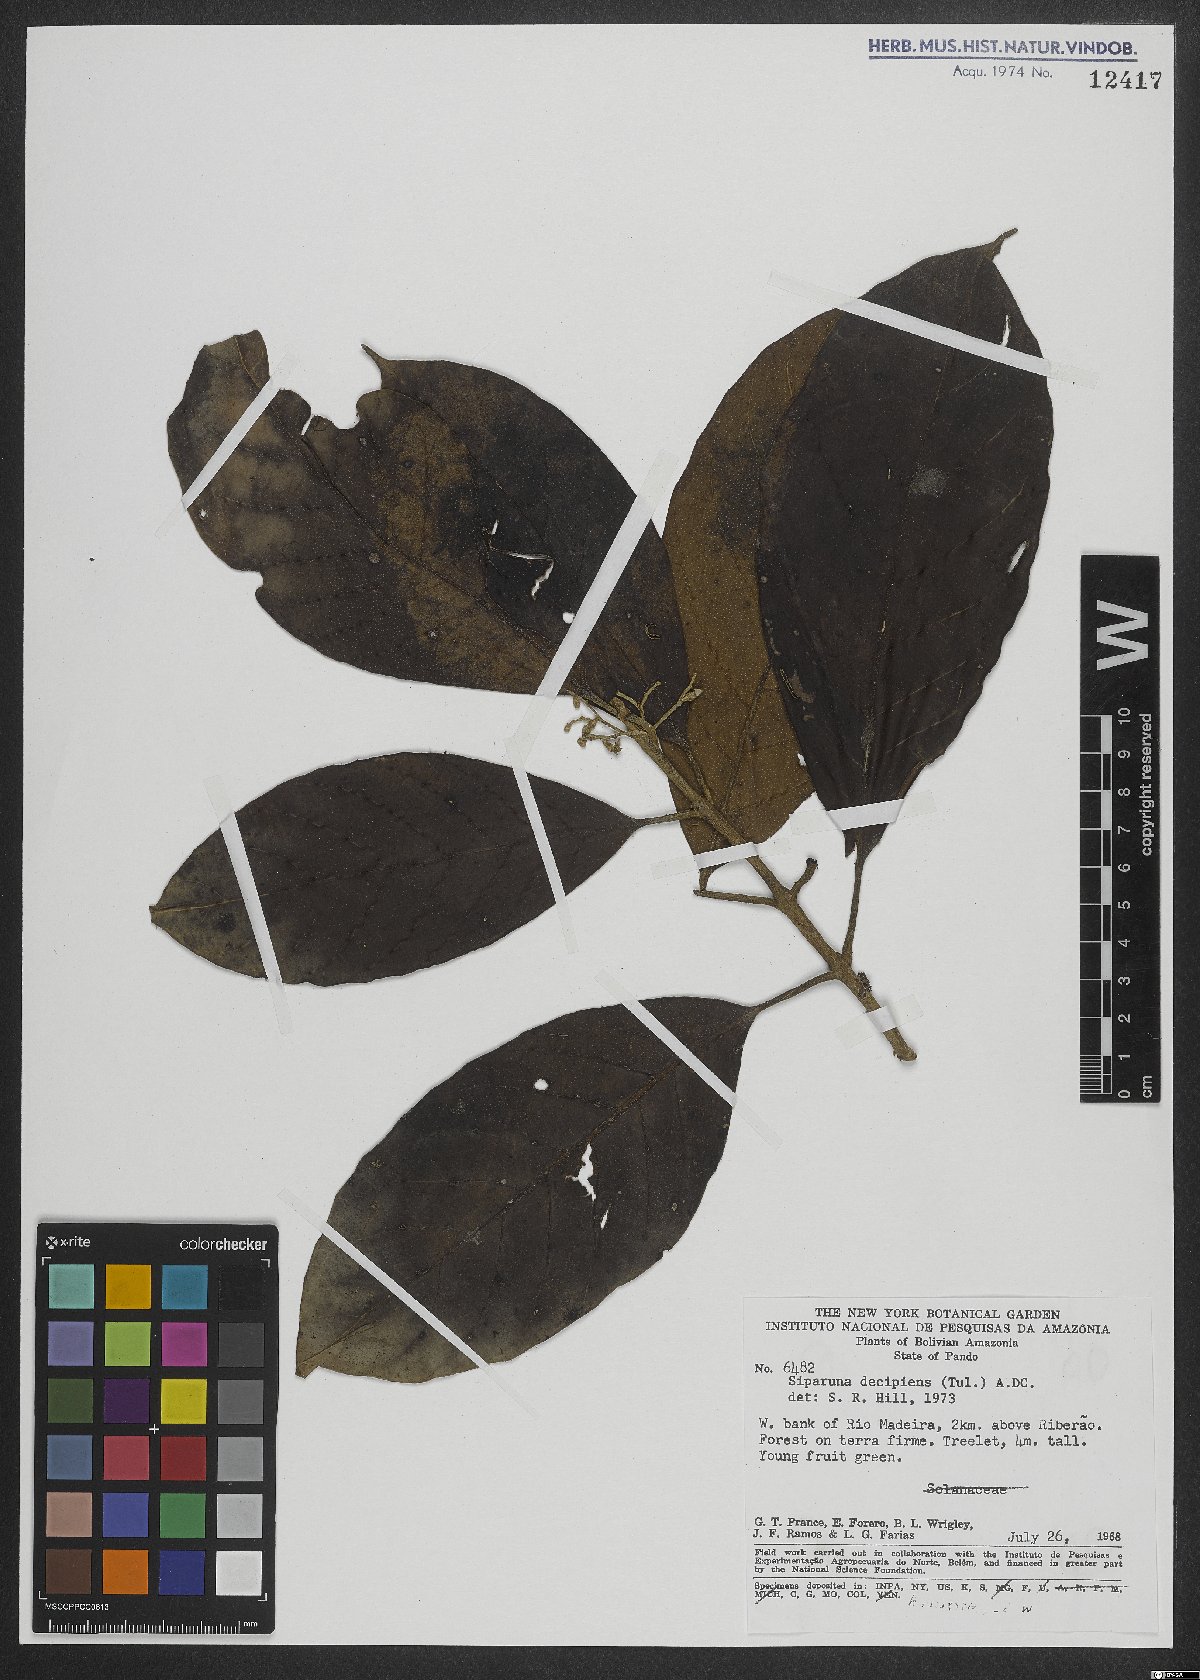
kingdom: Plantae
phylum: Tracheophyta
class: Magnoliopsida
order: Laurales
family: Siparunaceae
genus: Siparuna
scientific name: Siparuna decipiens
